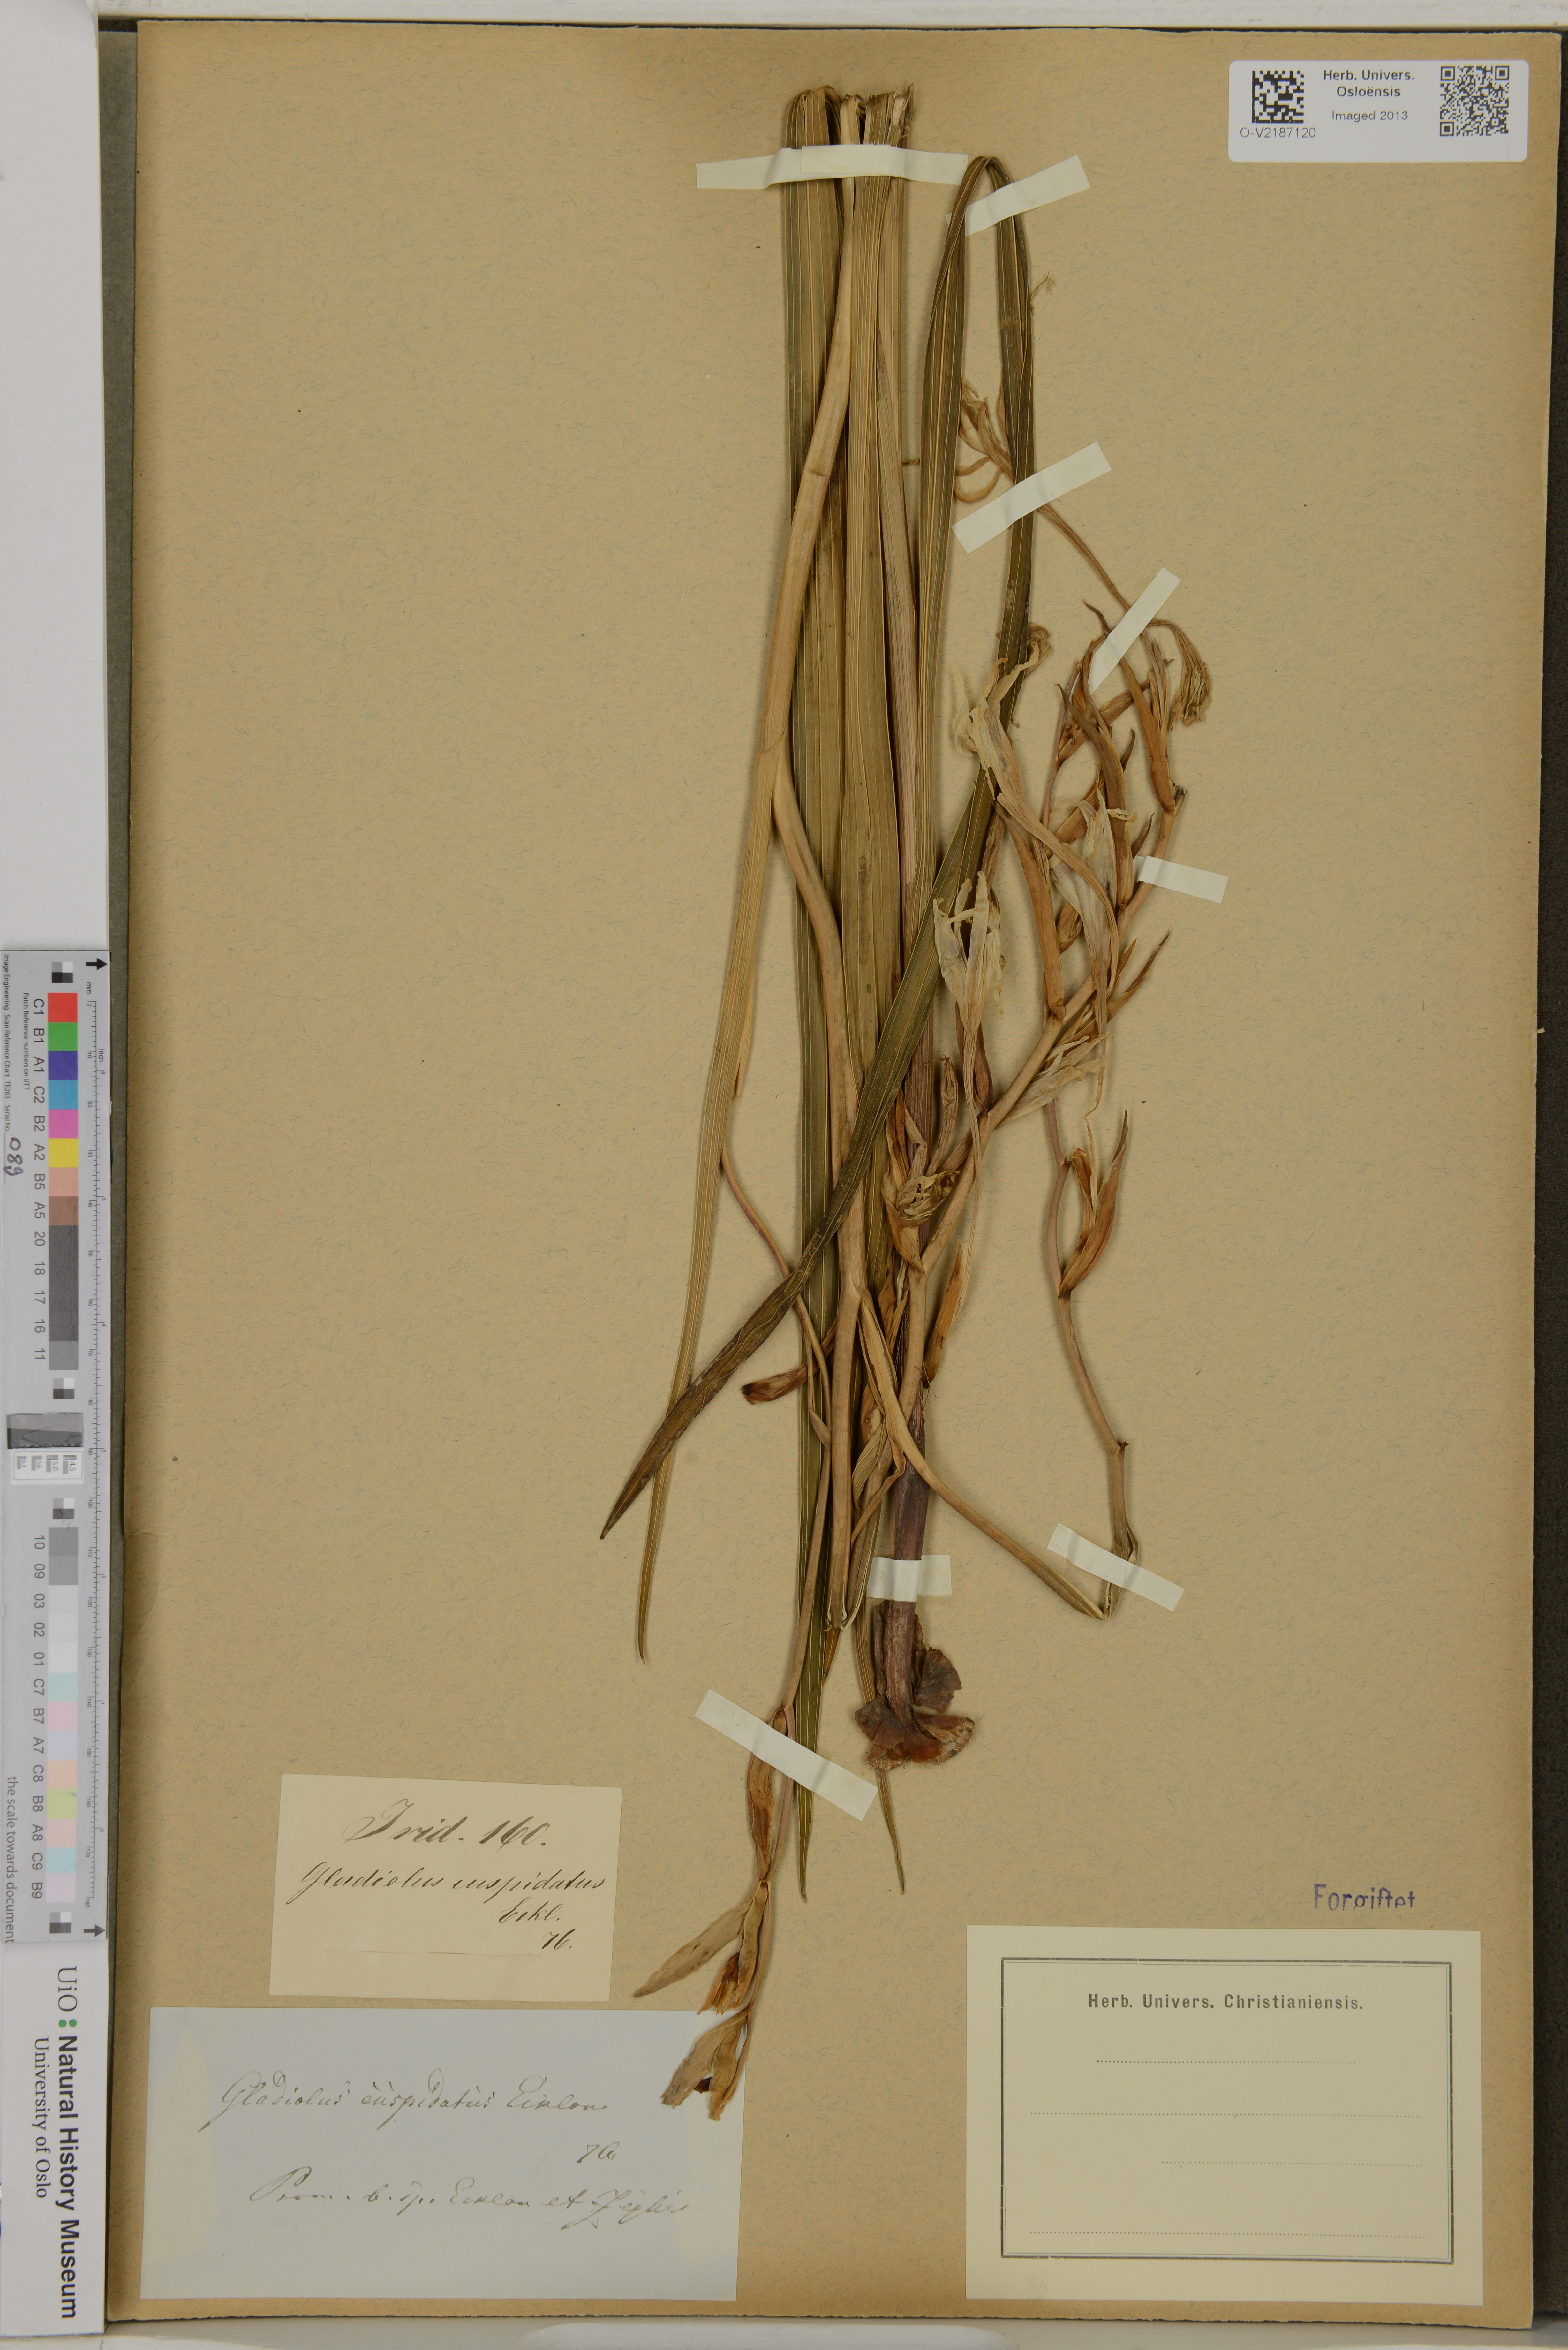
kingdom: Plantae
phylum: Tracheophyta
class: Liliopsida
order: Asparagales
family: Iridaceae
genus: Gladiolus
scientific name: Gladiolus undulatus
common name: Large painted-lady
